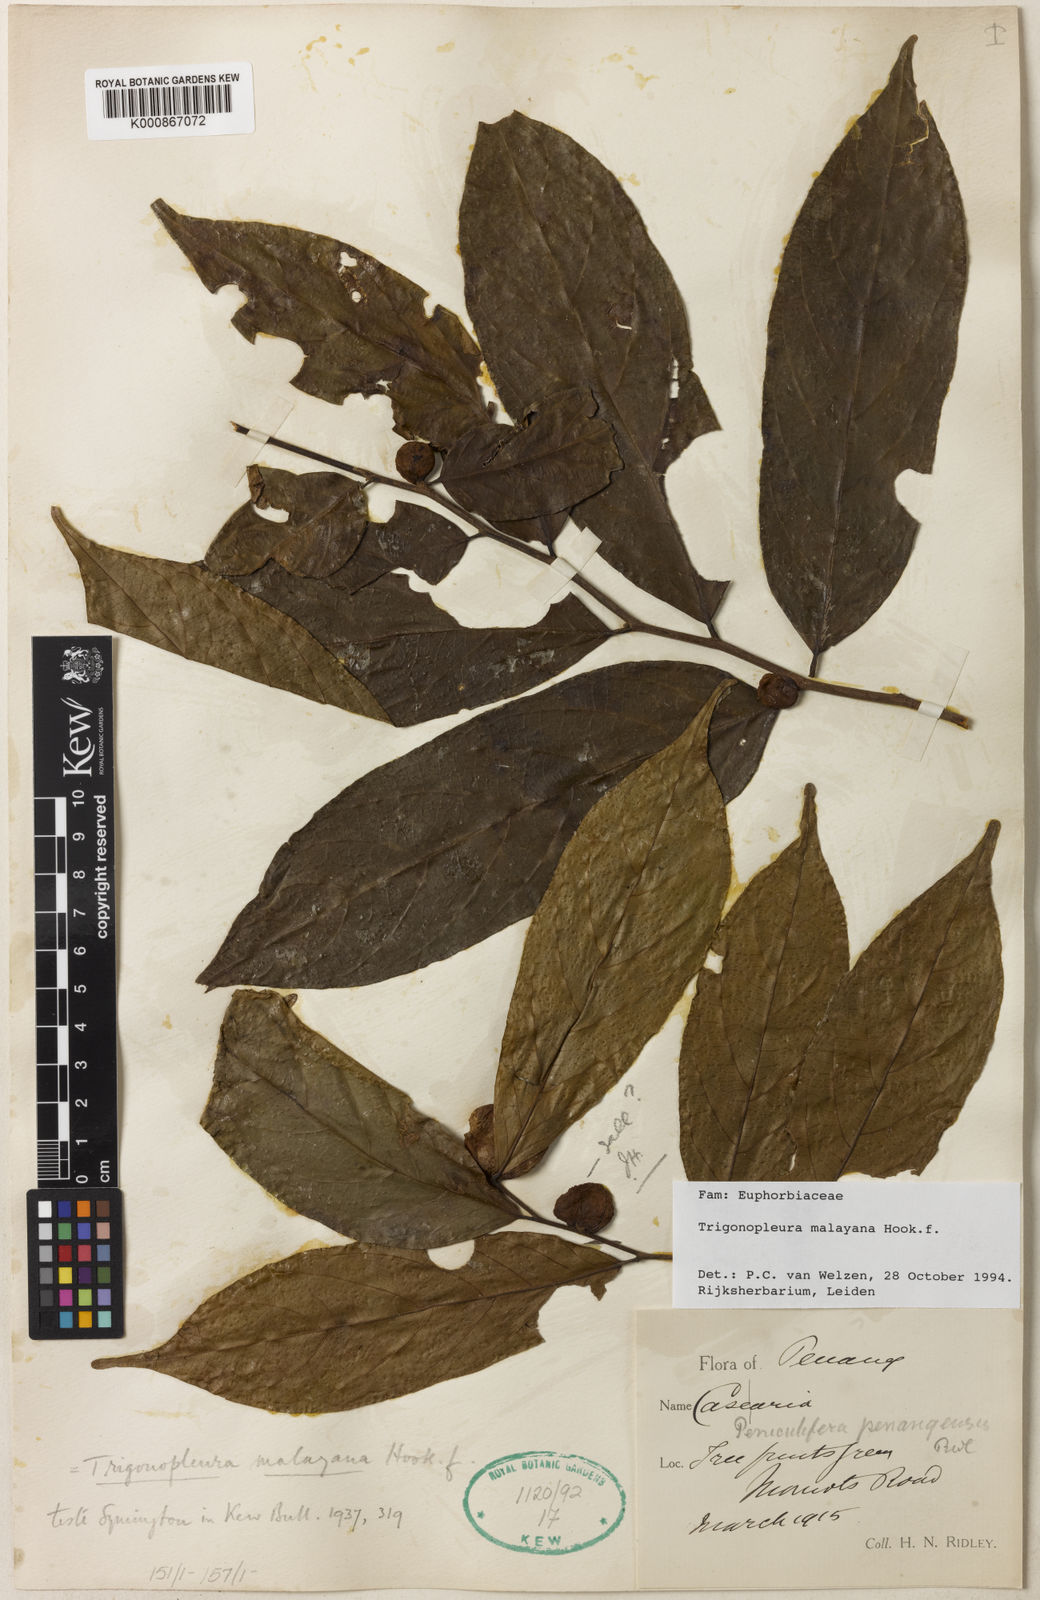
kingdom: Plantae
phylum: Tracheophyta
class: Magnoliopsida
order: Malpighiales
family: Peraceae
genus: Trigonopleura
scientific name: Trigonopleura malayana
